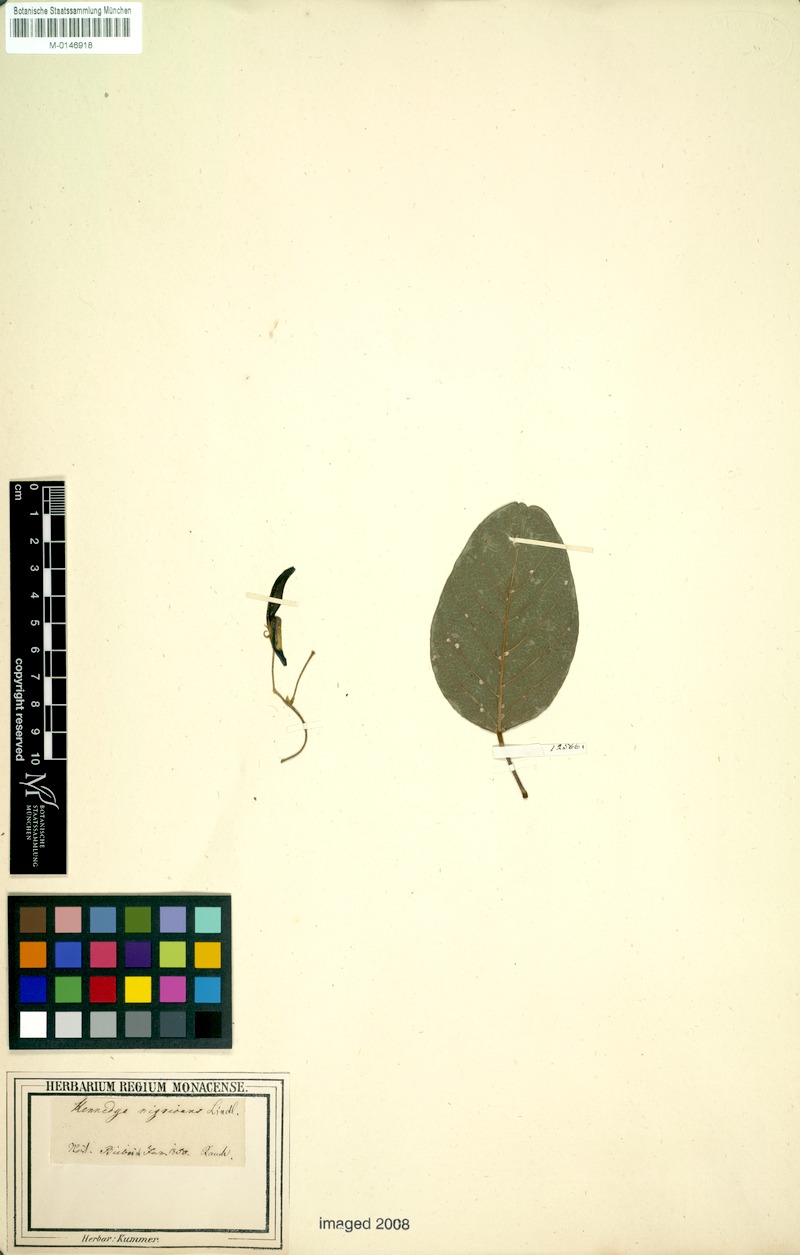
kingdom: Plantae
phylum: Tracheophyta
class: Magnoliopsida
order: Fabales
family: Fabaceae
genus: Kennedia
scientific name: Kennedia nigricans
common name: Black-bean
